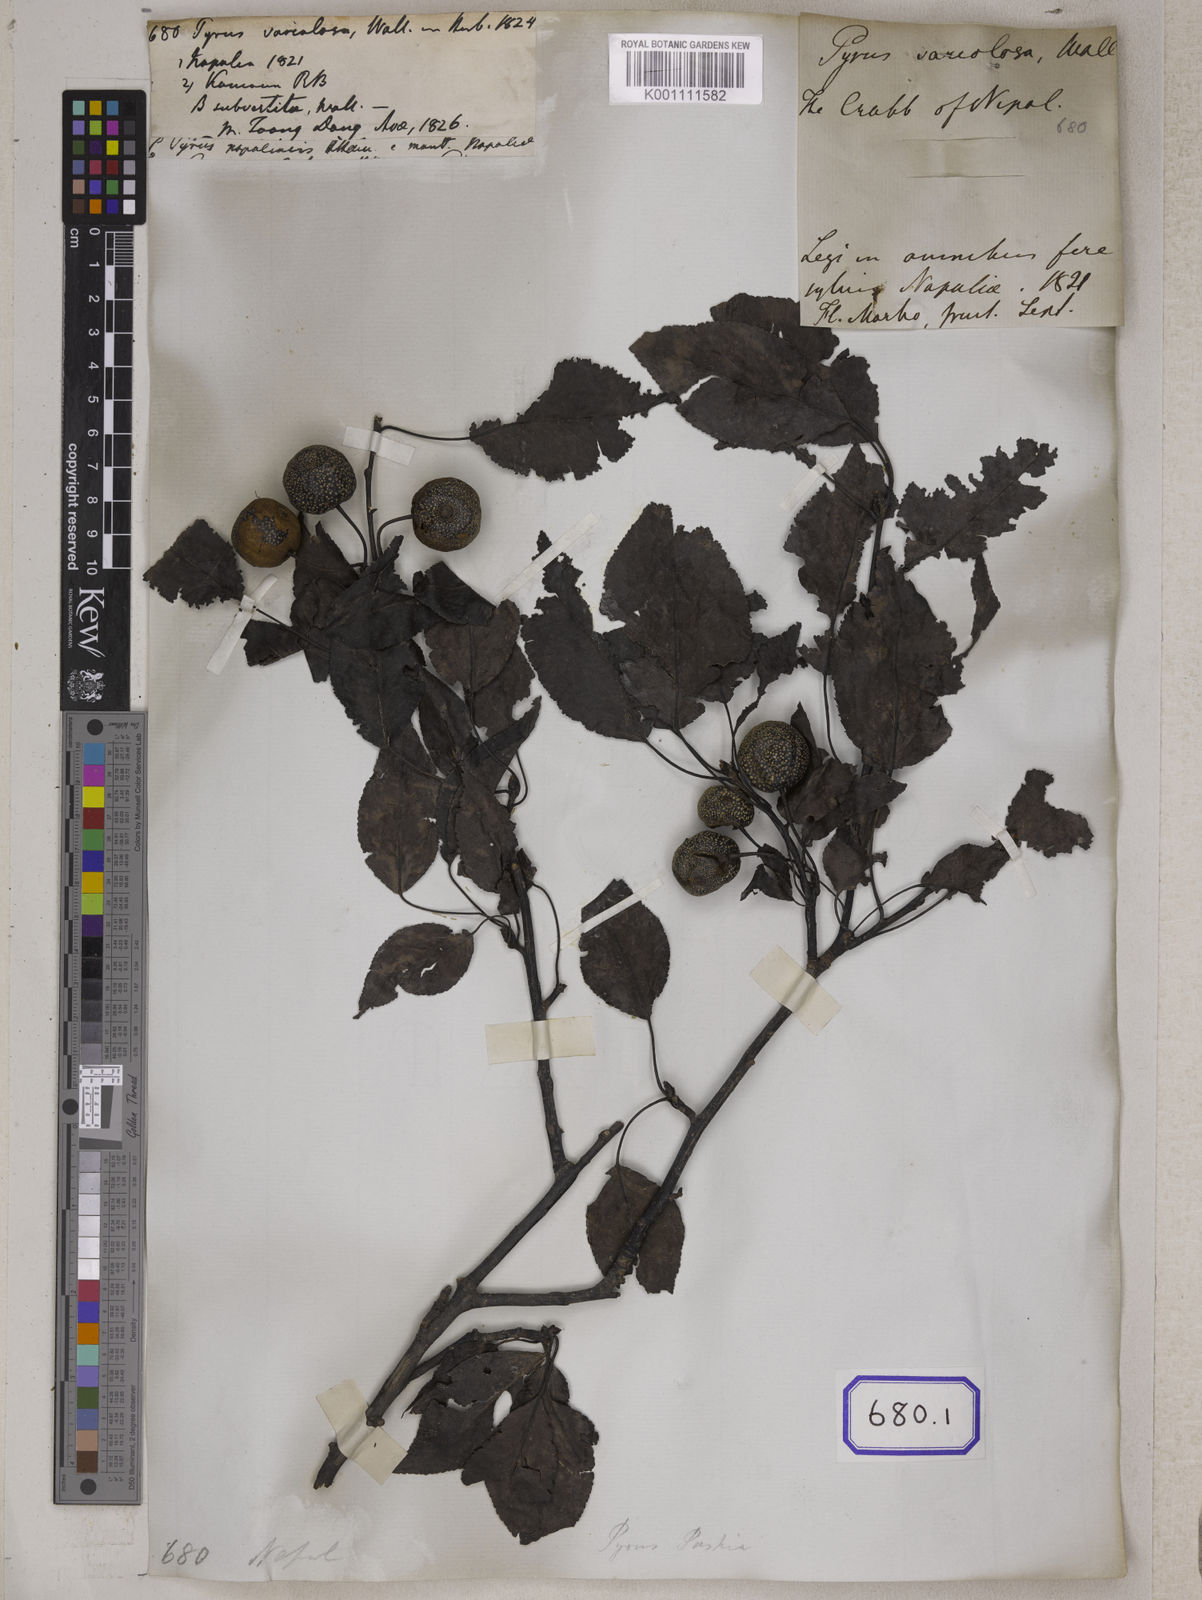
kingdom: Plantae
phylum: Tracheophyta
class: Magnoliopsida
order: Rosales
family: Rosaceae
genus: Pyrus
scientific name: Pyrus
